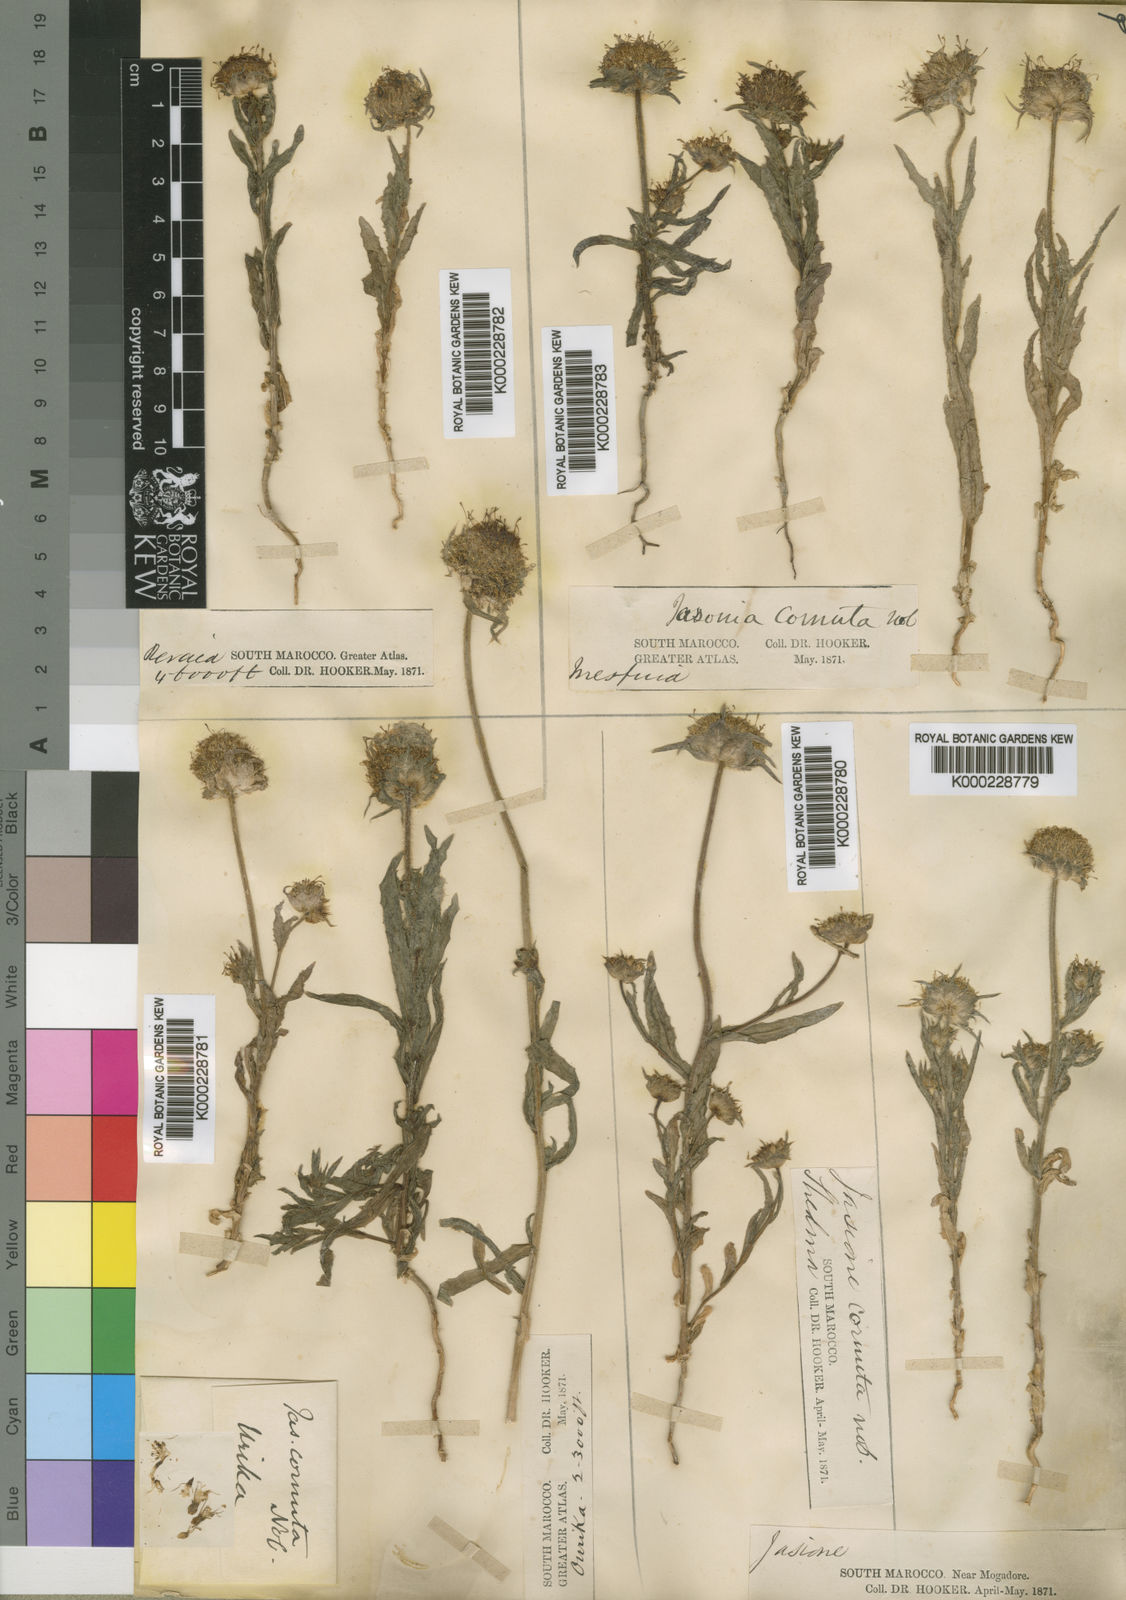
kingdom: Plantae
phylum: Tracheophyta
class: Magnoliopsida
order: Asterales
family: Campanulaceae
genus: Jasione
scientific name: Jasione montana
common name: Sheep's-bit
